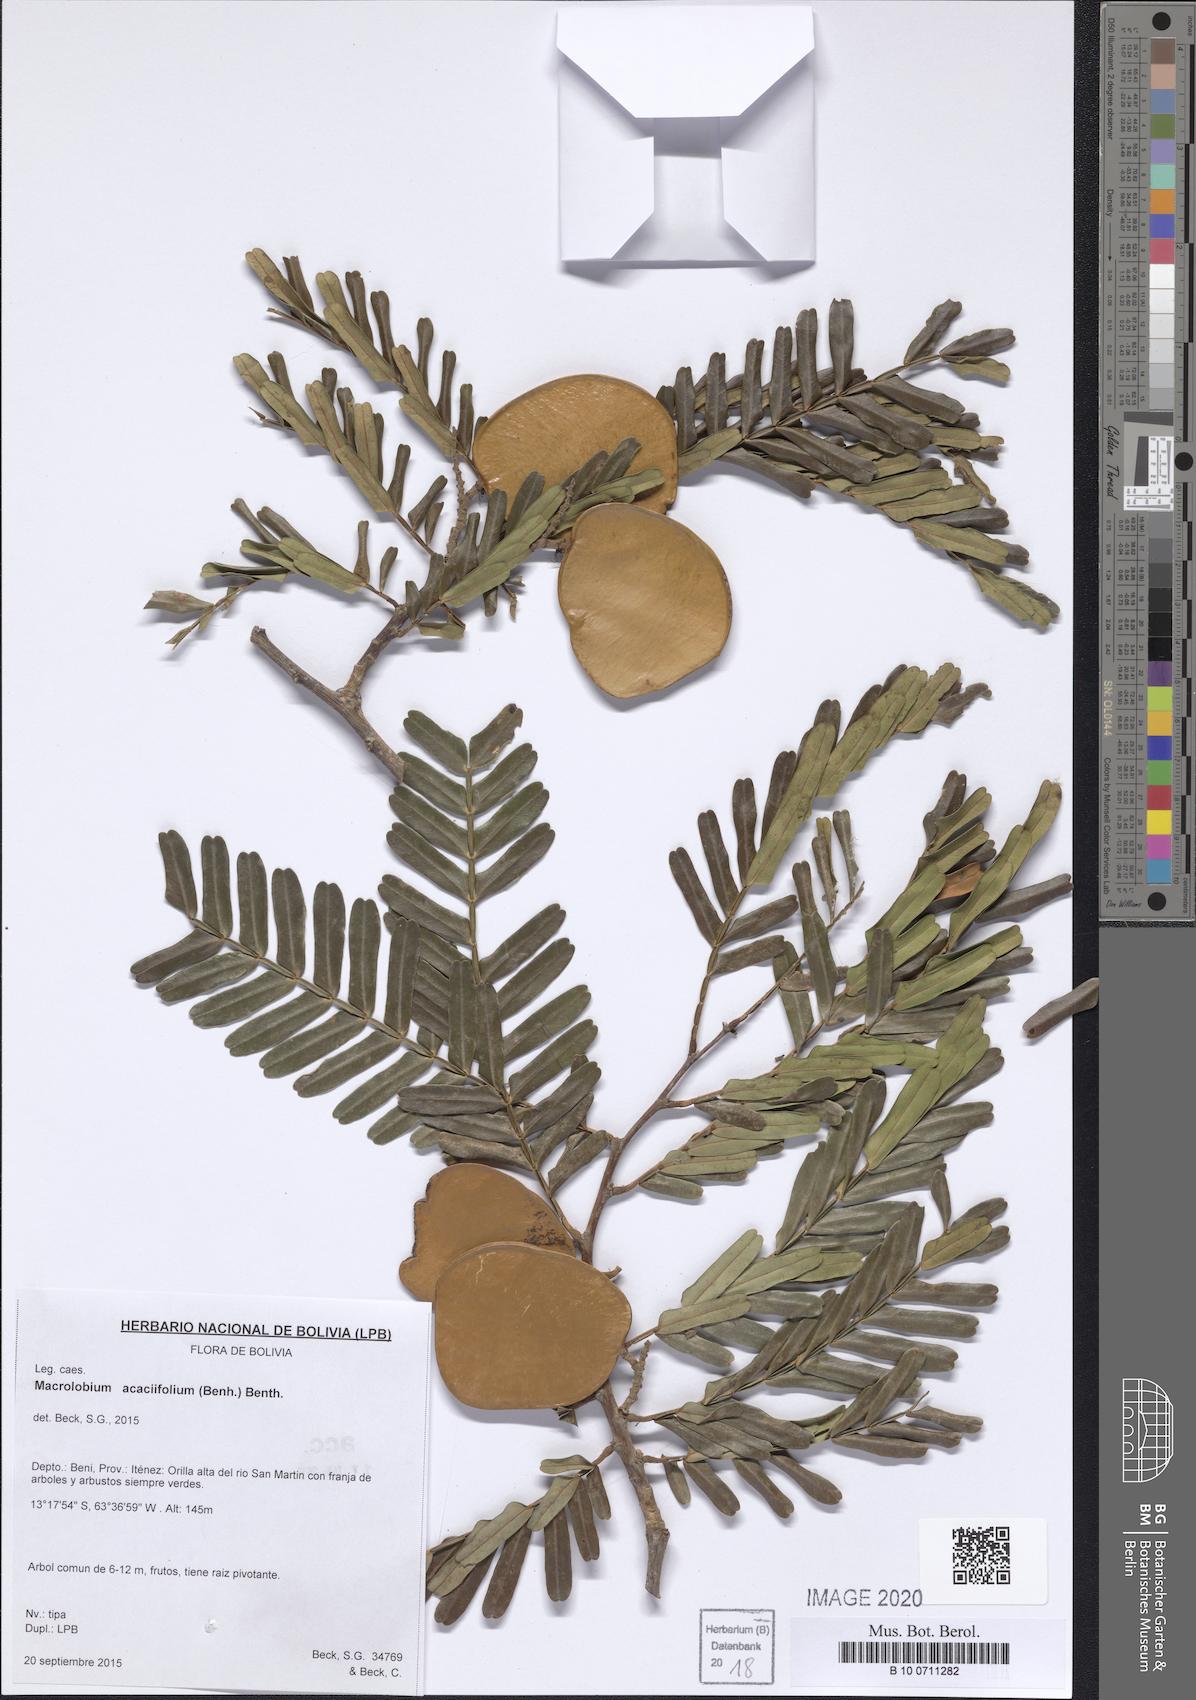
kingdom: Plantae
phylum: Tracheophyta
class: Magnoliopsida
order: Fabales
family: Fabaceae
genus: Macrolobium
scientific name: Macrolobium acaciifolium
